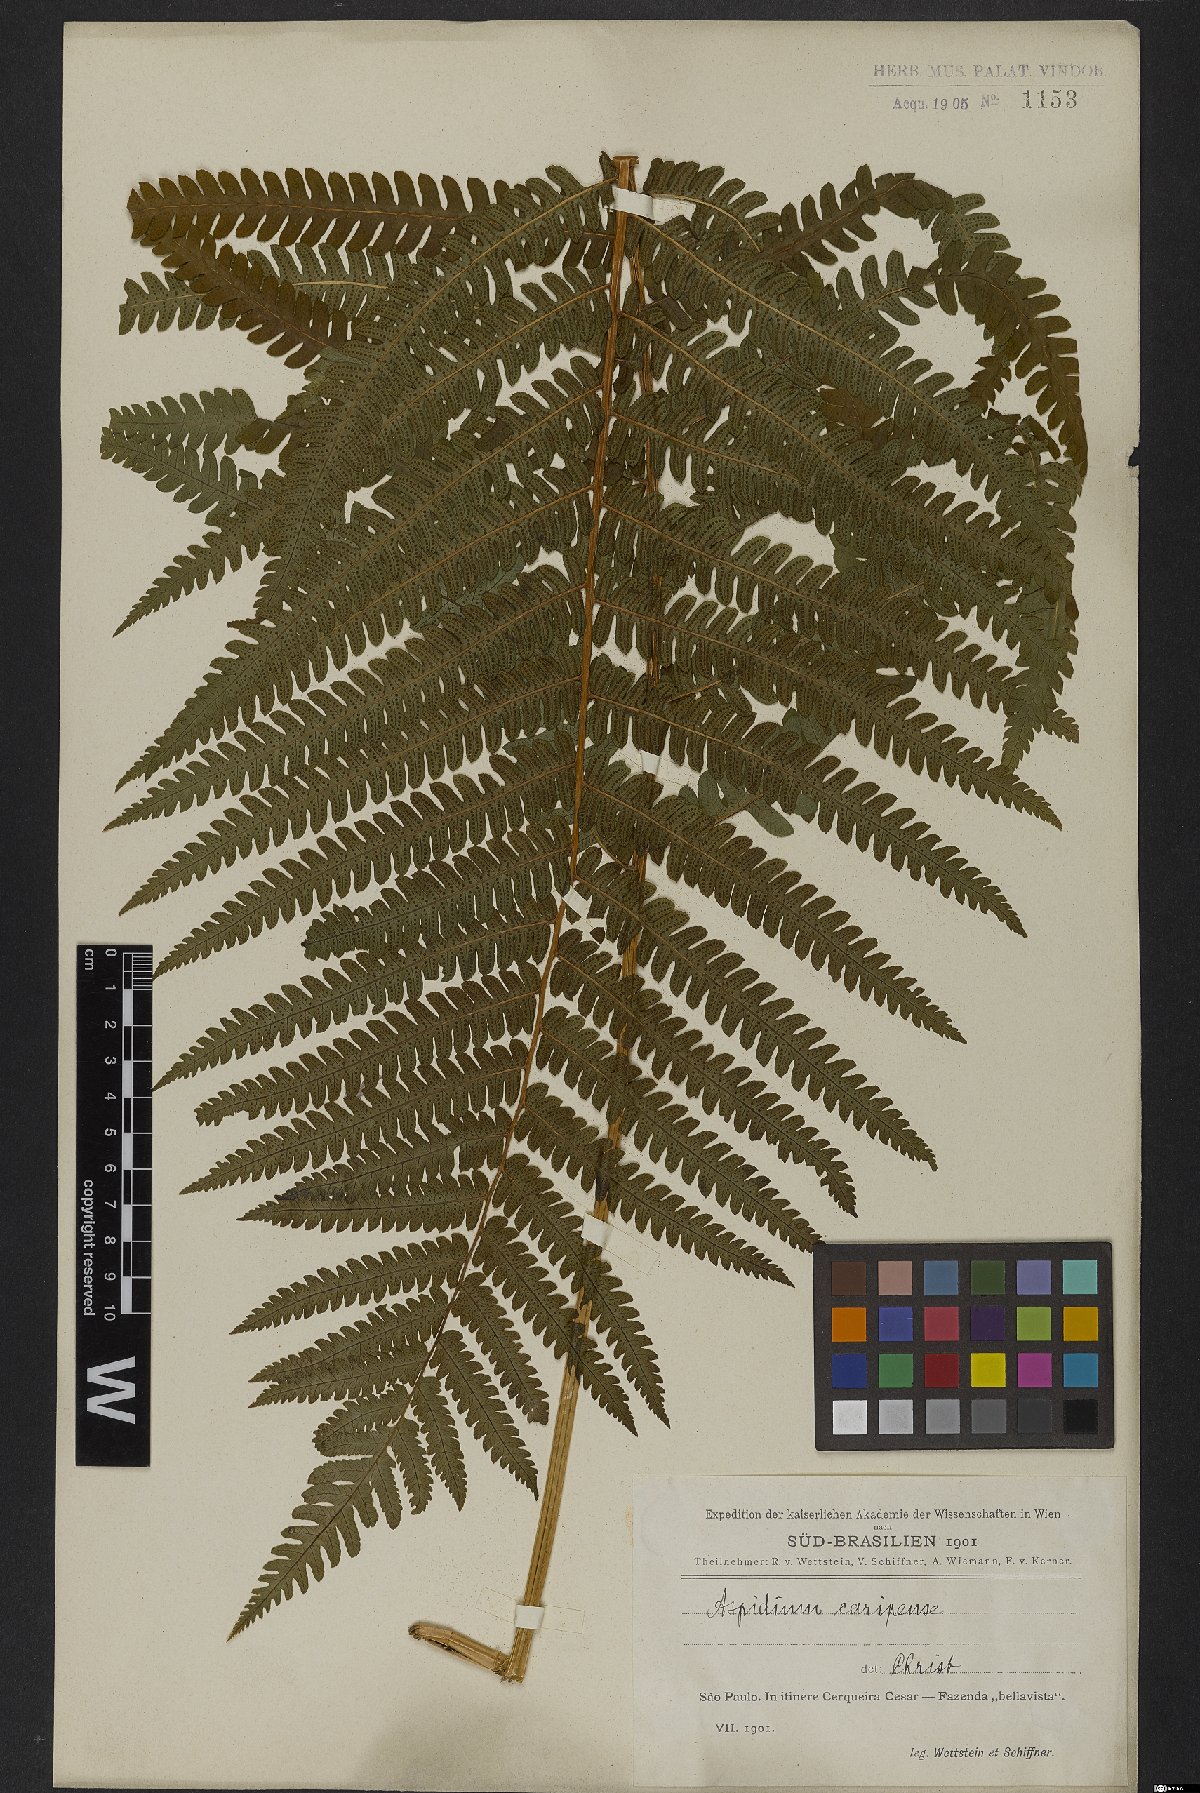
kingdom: Plantae
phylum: Tracheophyta
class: Polypodiopsida
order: Polypodiales
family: Dryopteridaceae
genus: Ctenitis
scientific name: Ctenitis submarginalis
